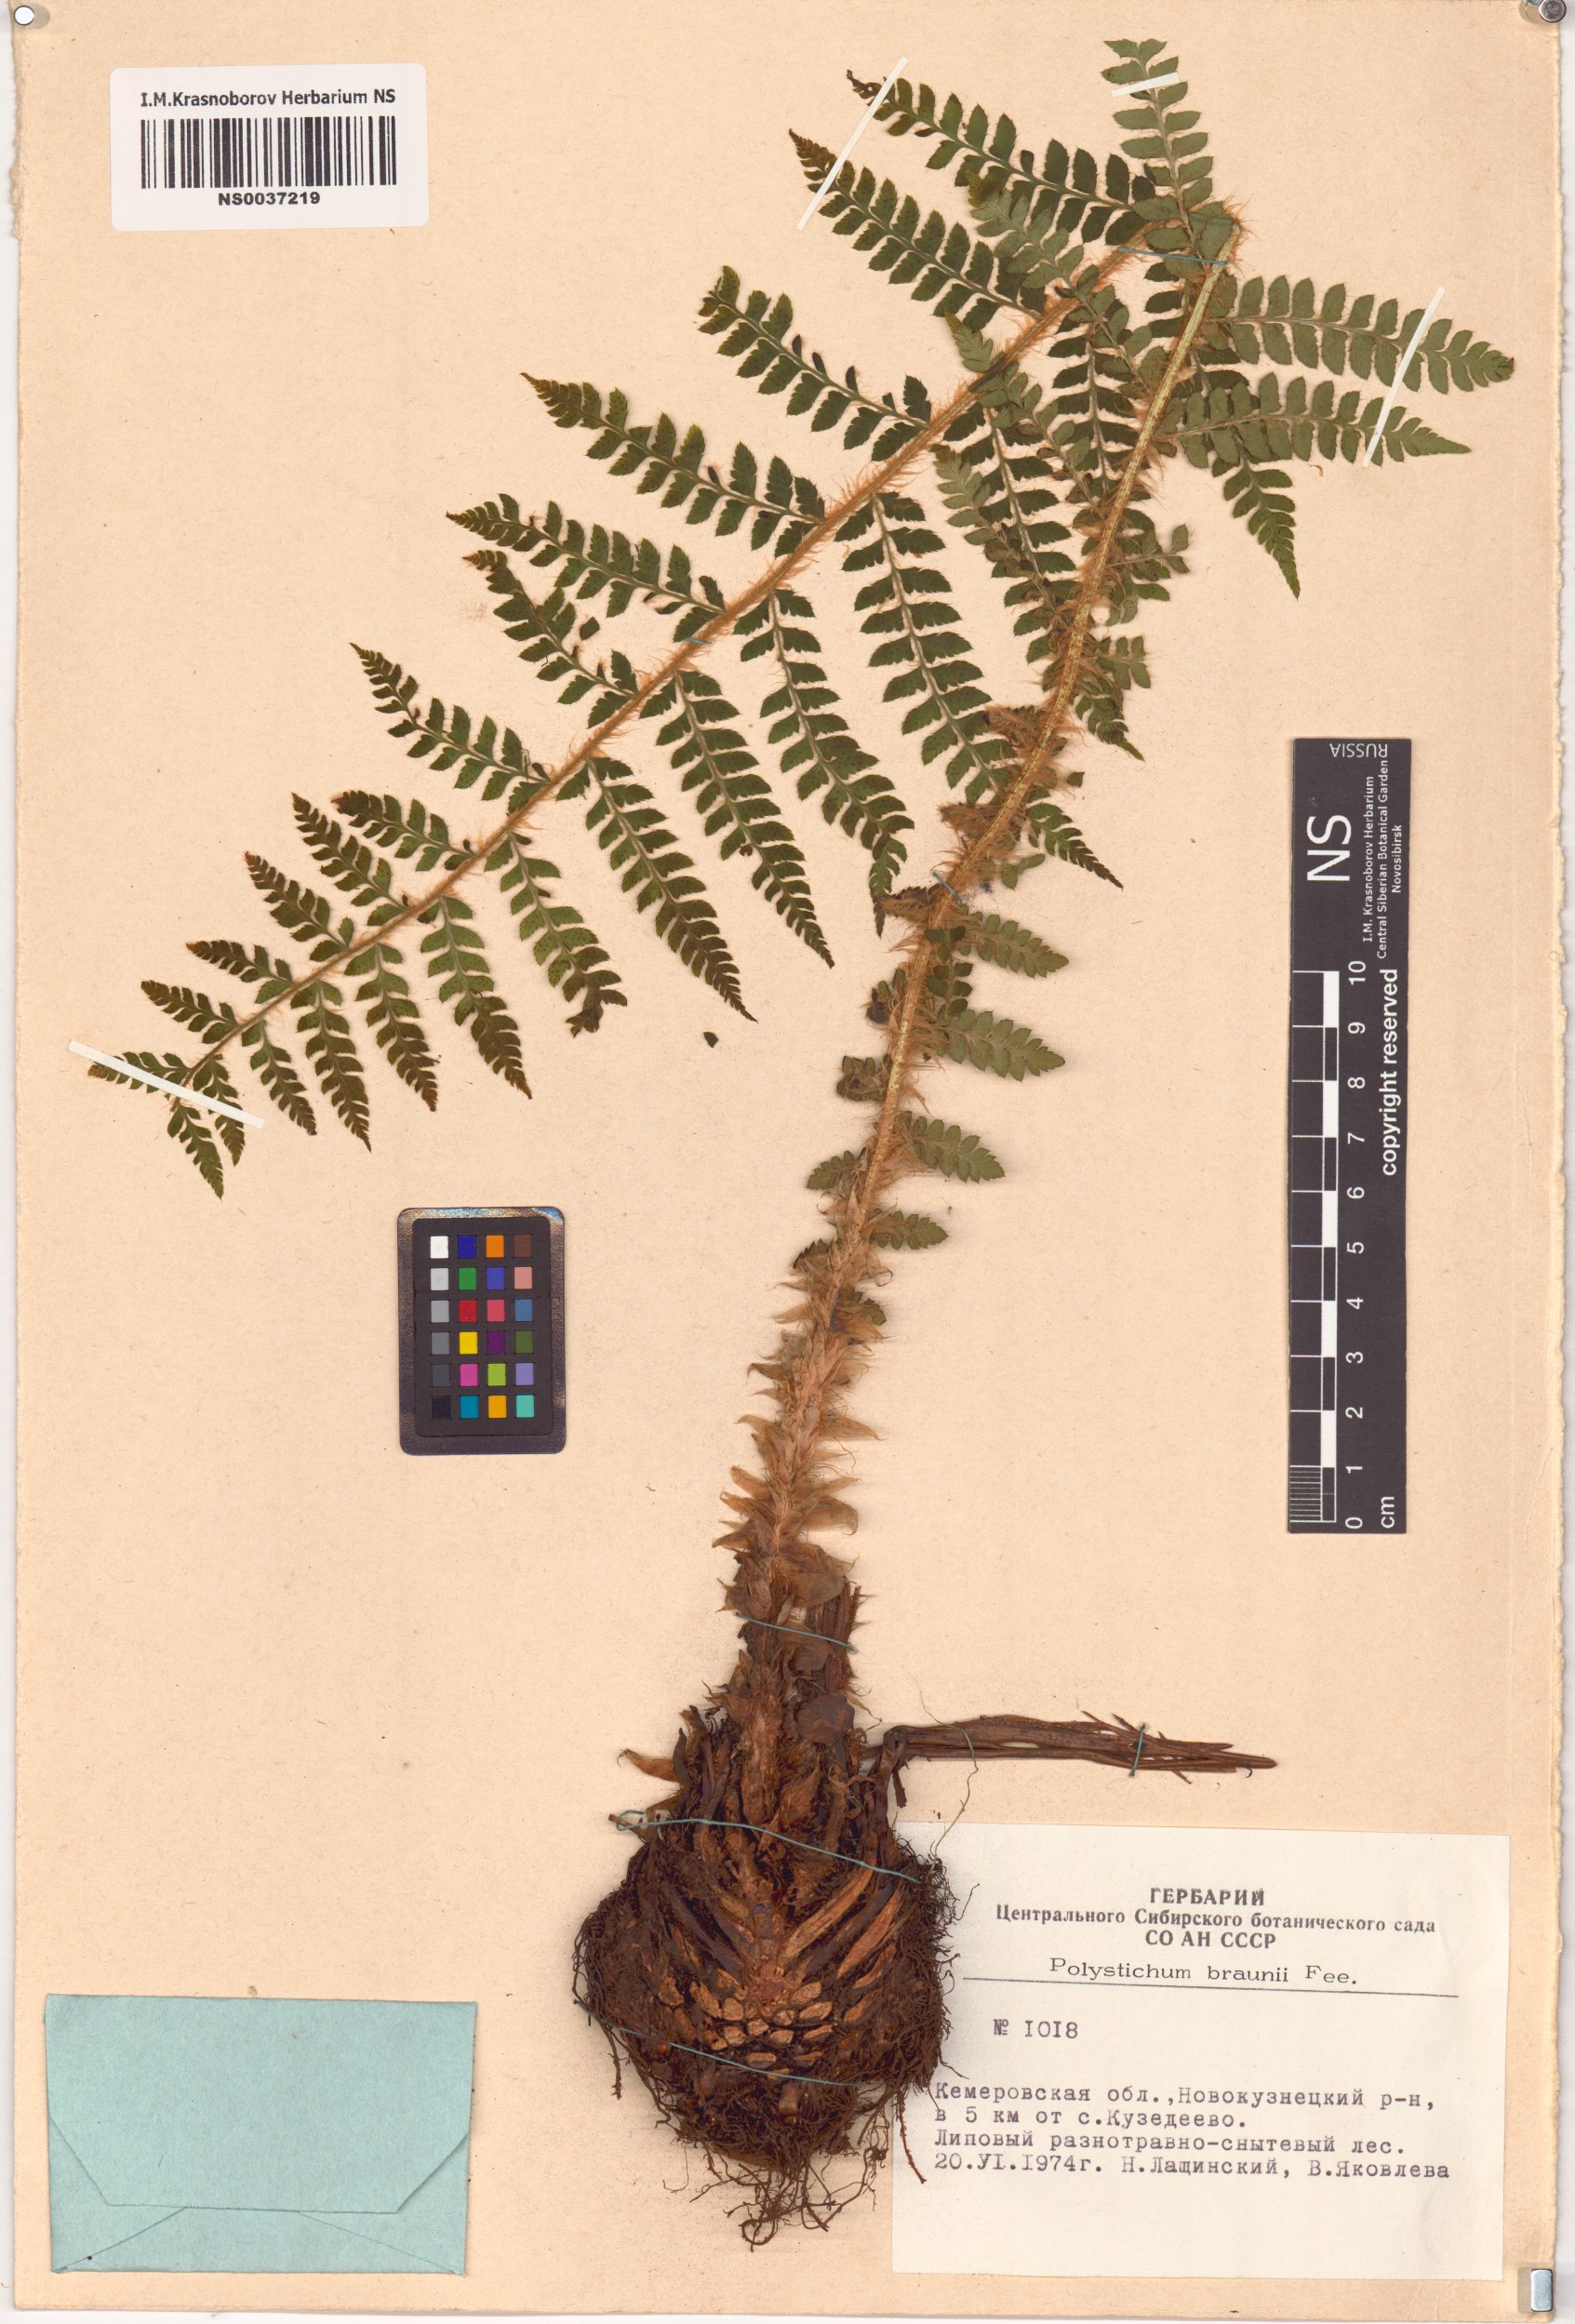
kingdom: Plantae
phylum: Tracheophyta
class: Polypodiopsida
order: Polypodiales
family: Dryopteridaceae
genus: Polystichum
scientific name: Polystichum braunii
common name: Braun's holly fern
